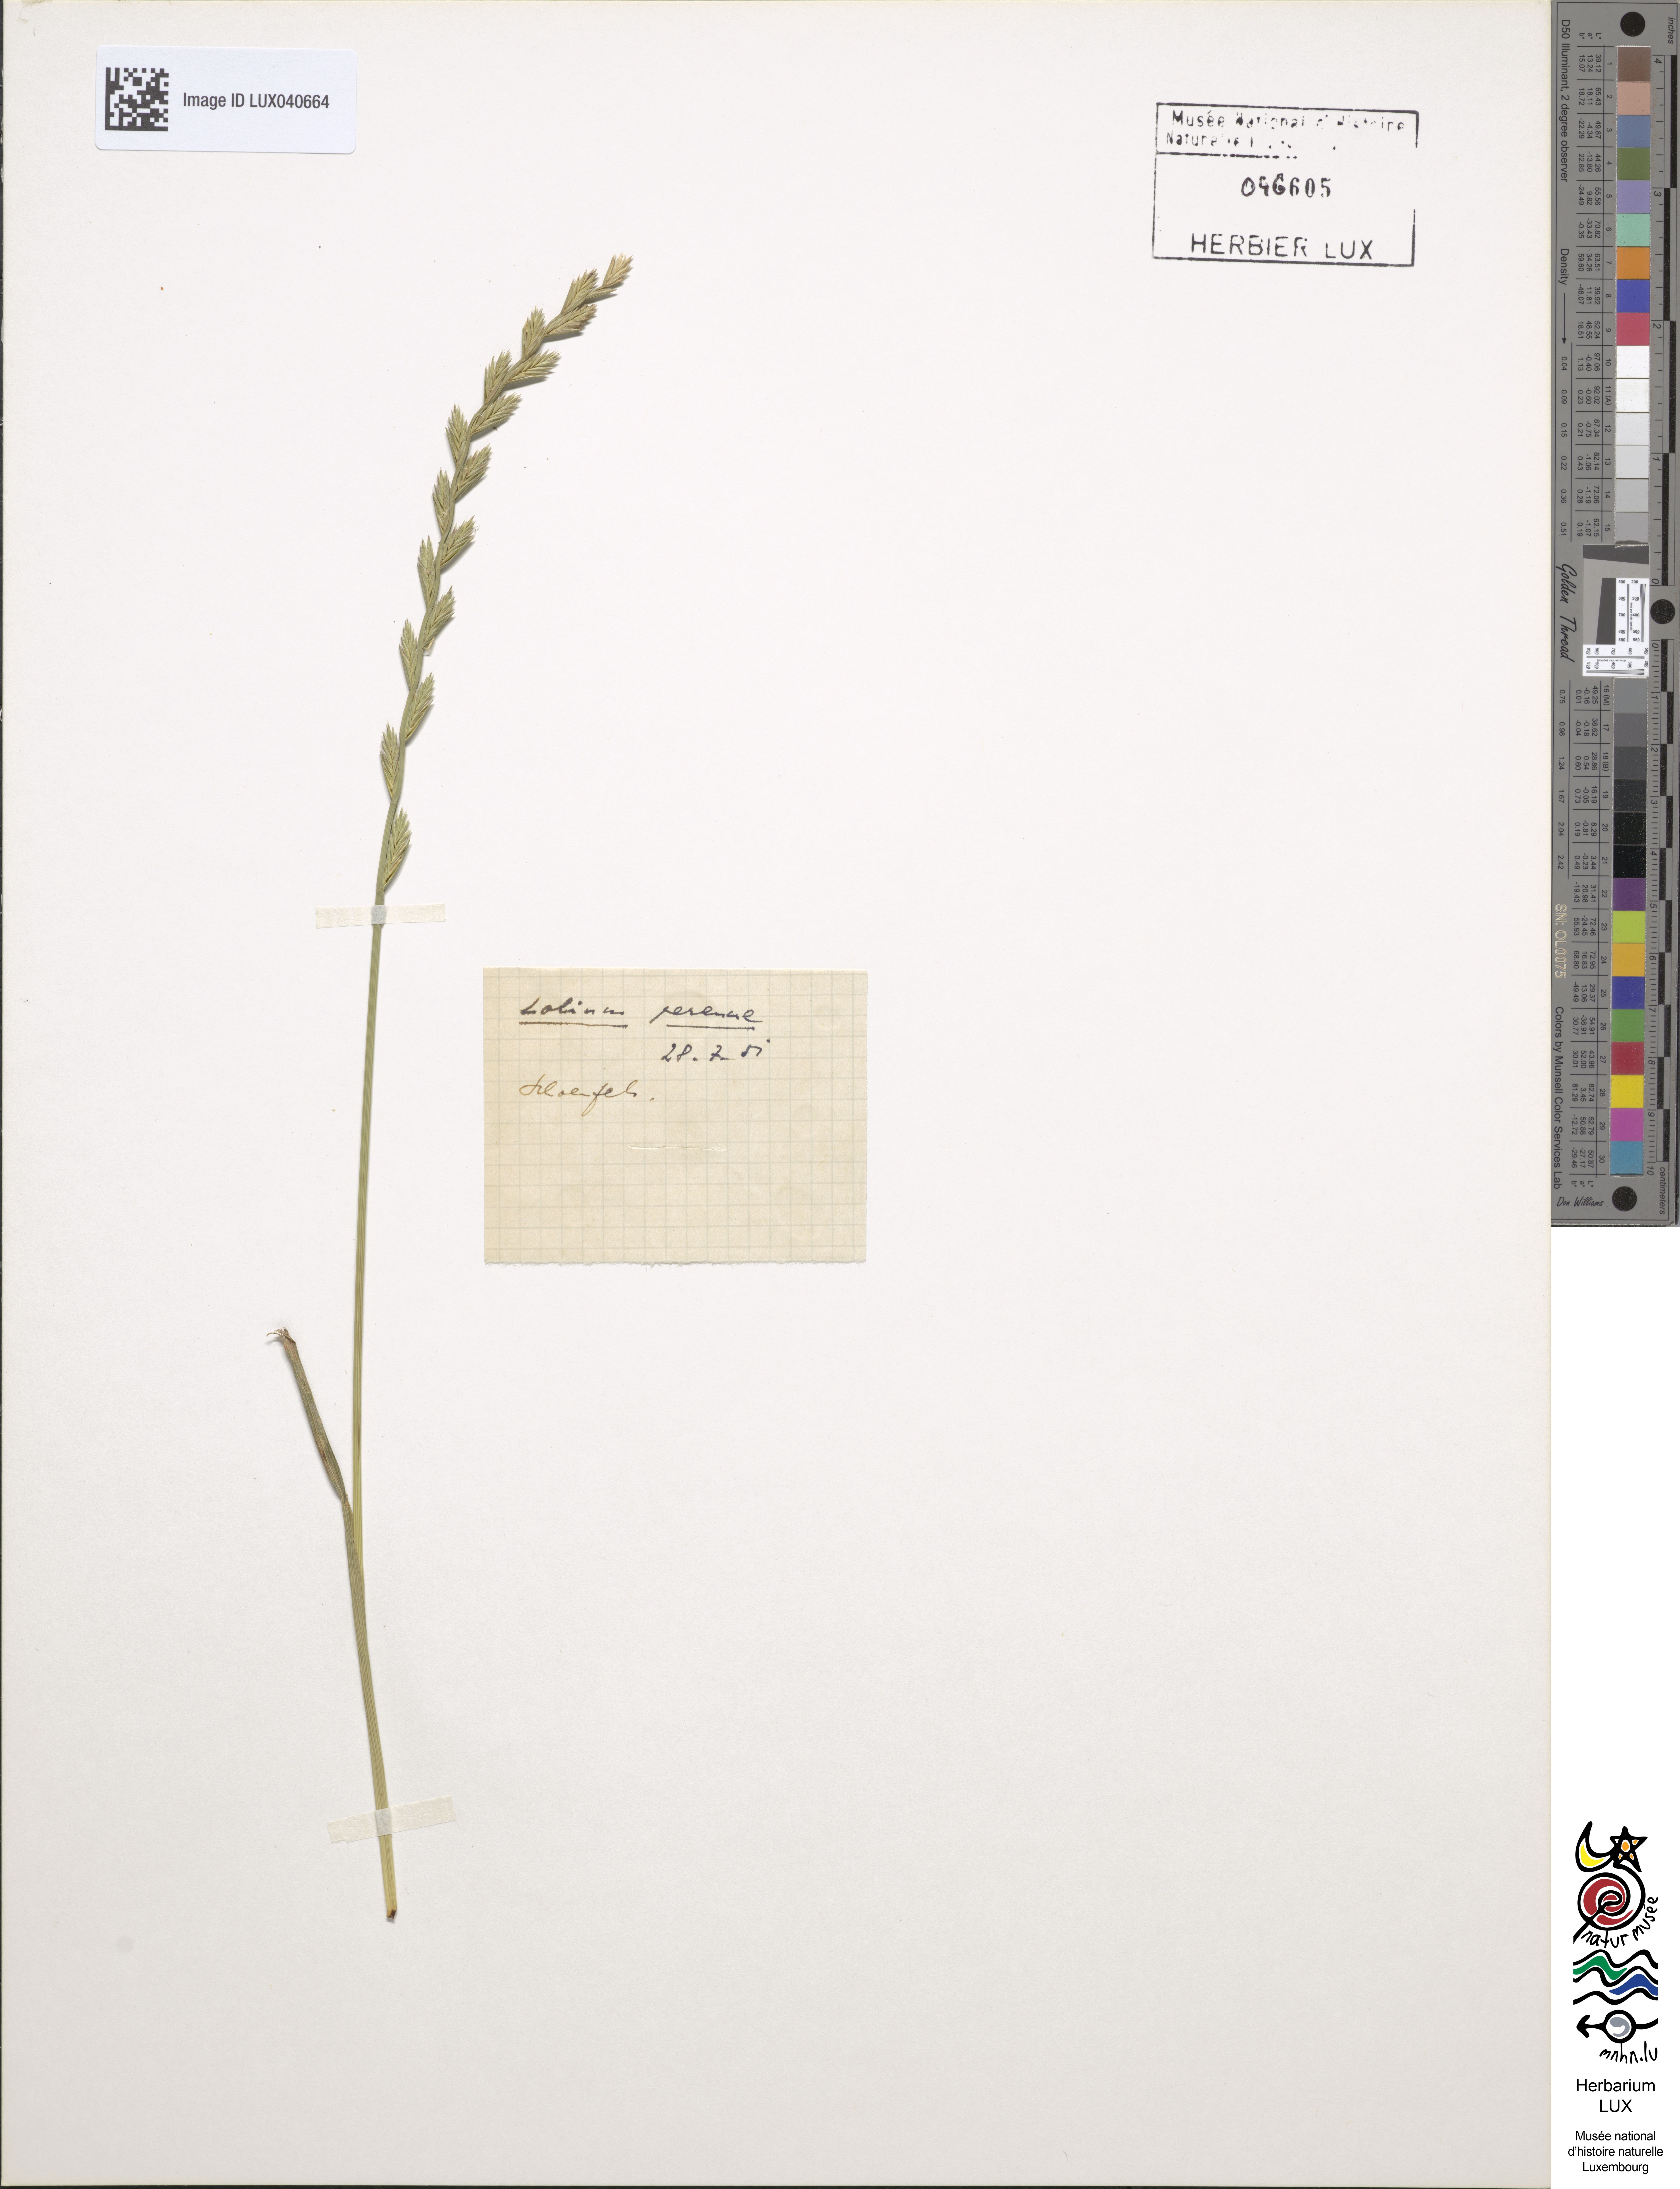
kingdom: Plantae
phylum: Tracheophyta
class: Liliopsida
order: Poales
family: Poaceae
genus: Lolium
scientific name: Lolium perenne
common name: Perennial ryegrass
